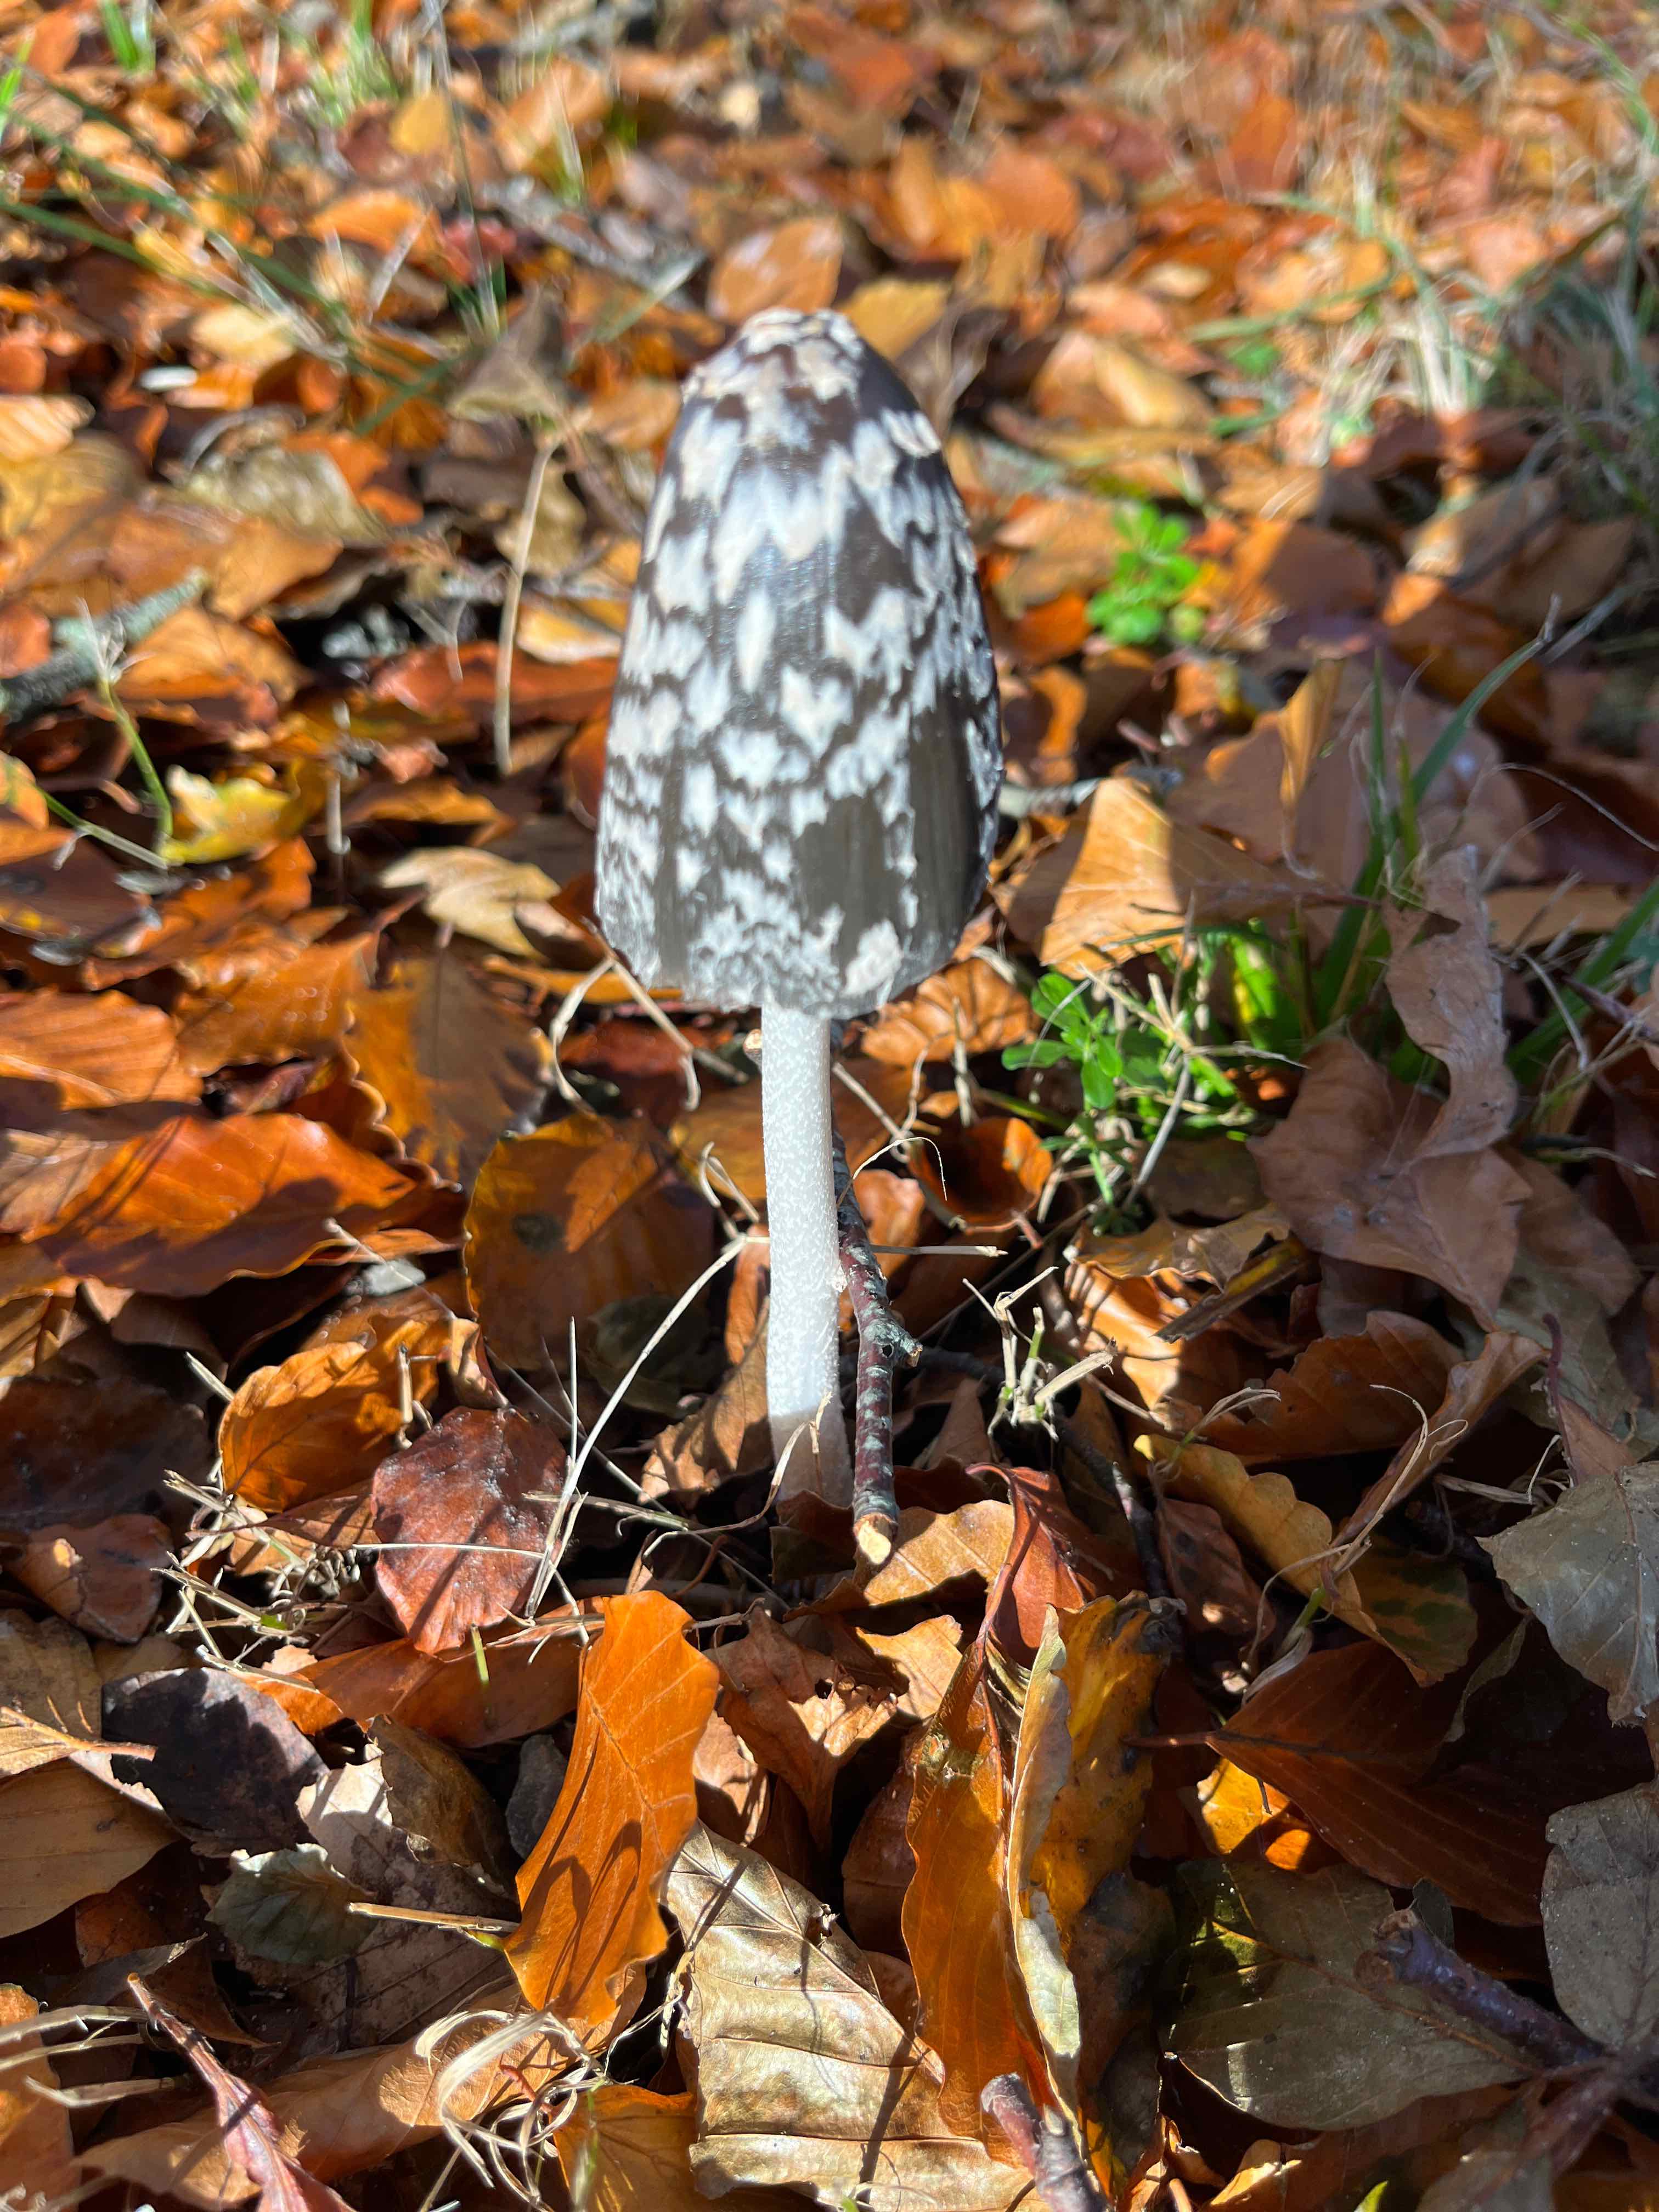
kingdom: Fungi
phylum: Basidiomycota
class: Agaricomycetes
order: Agaricales
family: Psathyrellaceae
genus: Coprinopsis
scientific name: Coprinopsis picacea
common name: skade-blækhat
